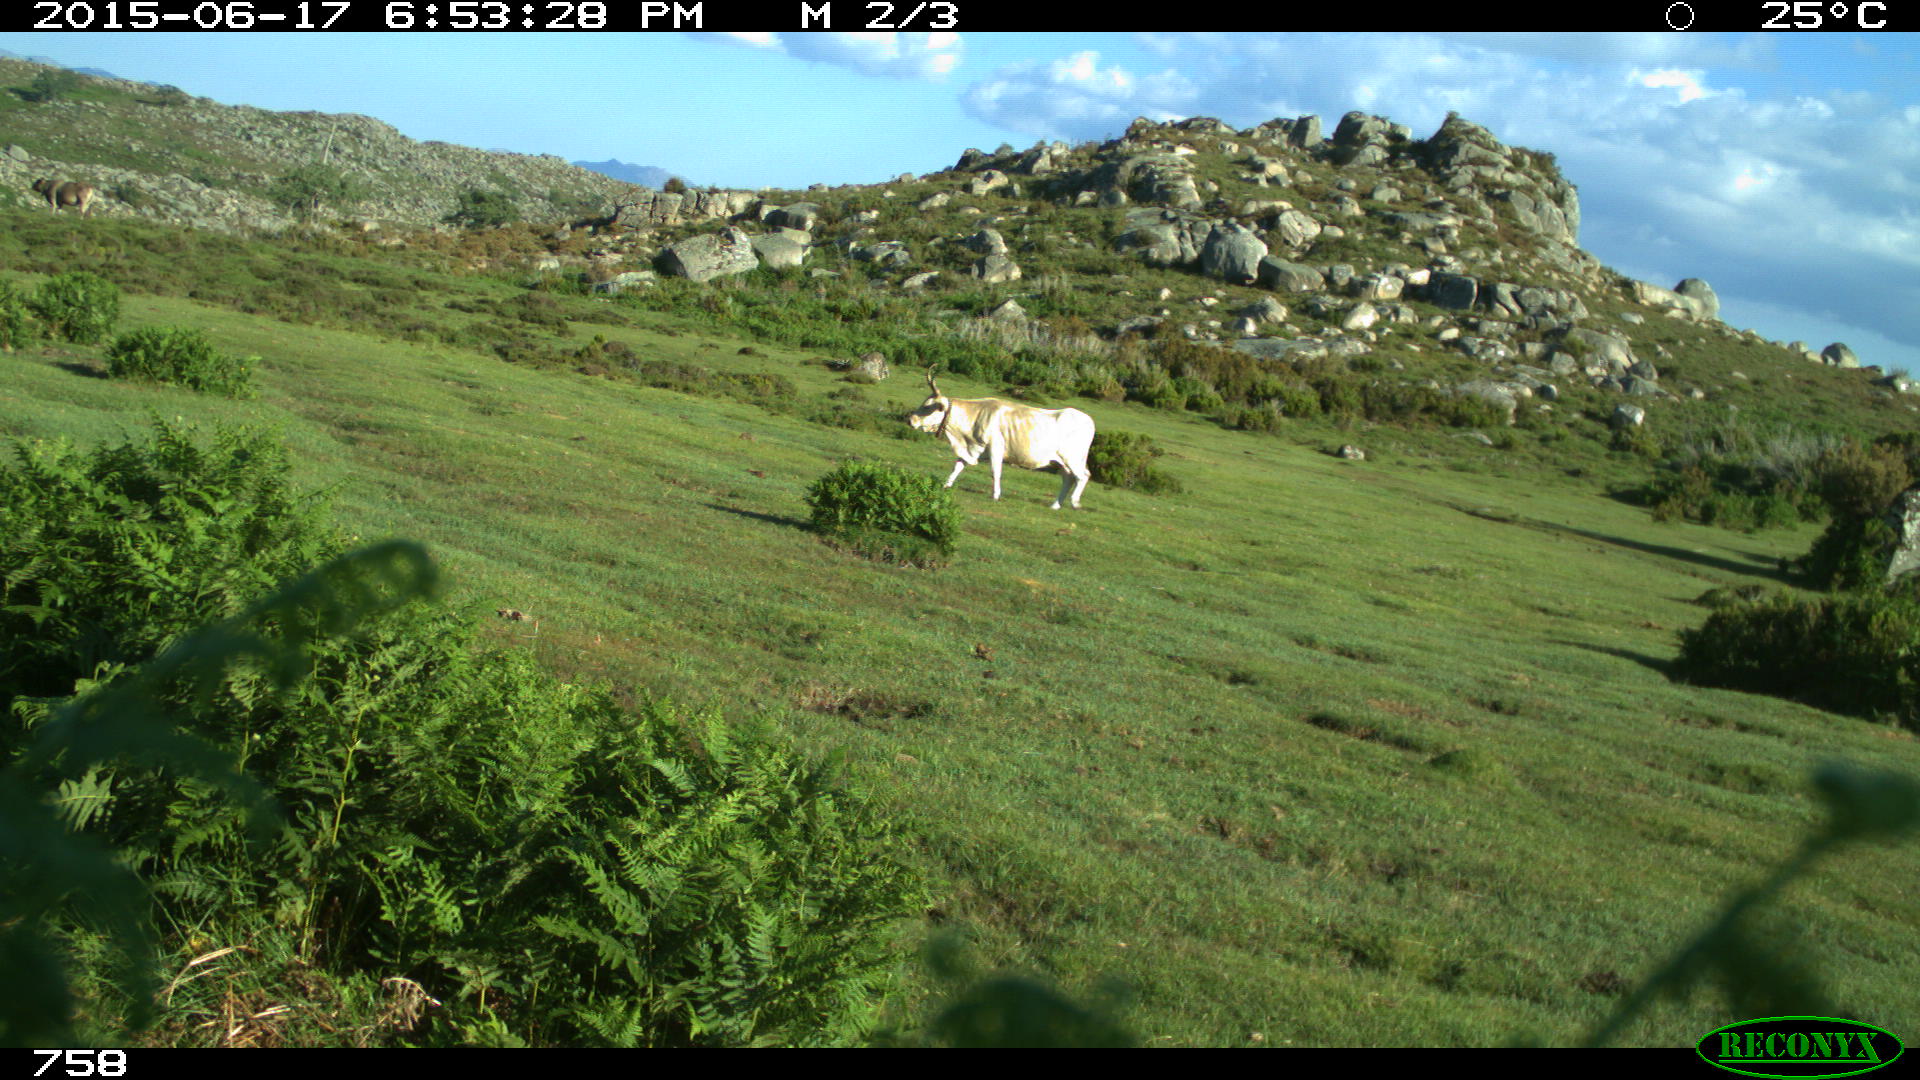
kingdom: Animalia
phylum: Chordata
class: Mammalia
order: Artiodactyla
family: Bovidae
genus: Bos
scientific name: Bos taurus
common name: Domesticated cattle
